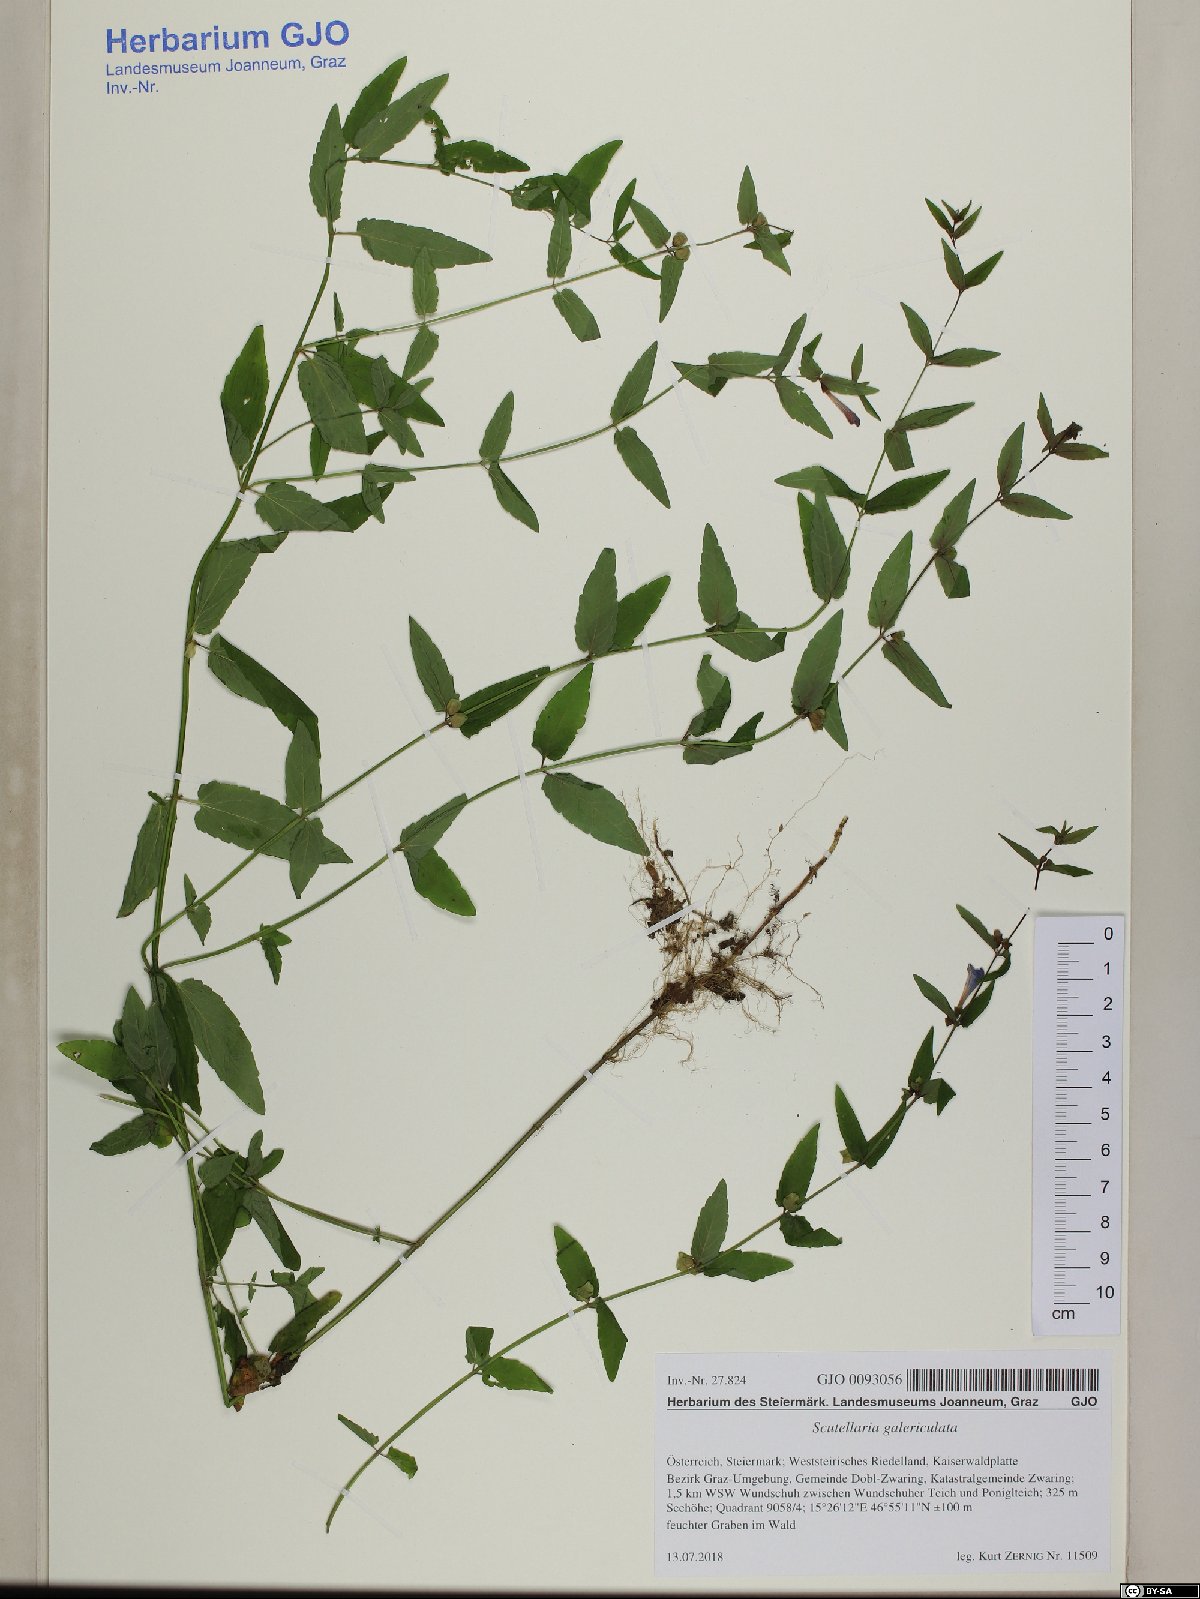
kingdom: Plantae
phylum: Tracheophyta
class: Magnoliopsida
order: Lamiales
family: Lamiaceae
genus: Scutellaria
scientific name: Scutellaria galericulata
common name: Skullcap
